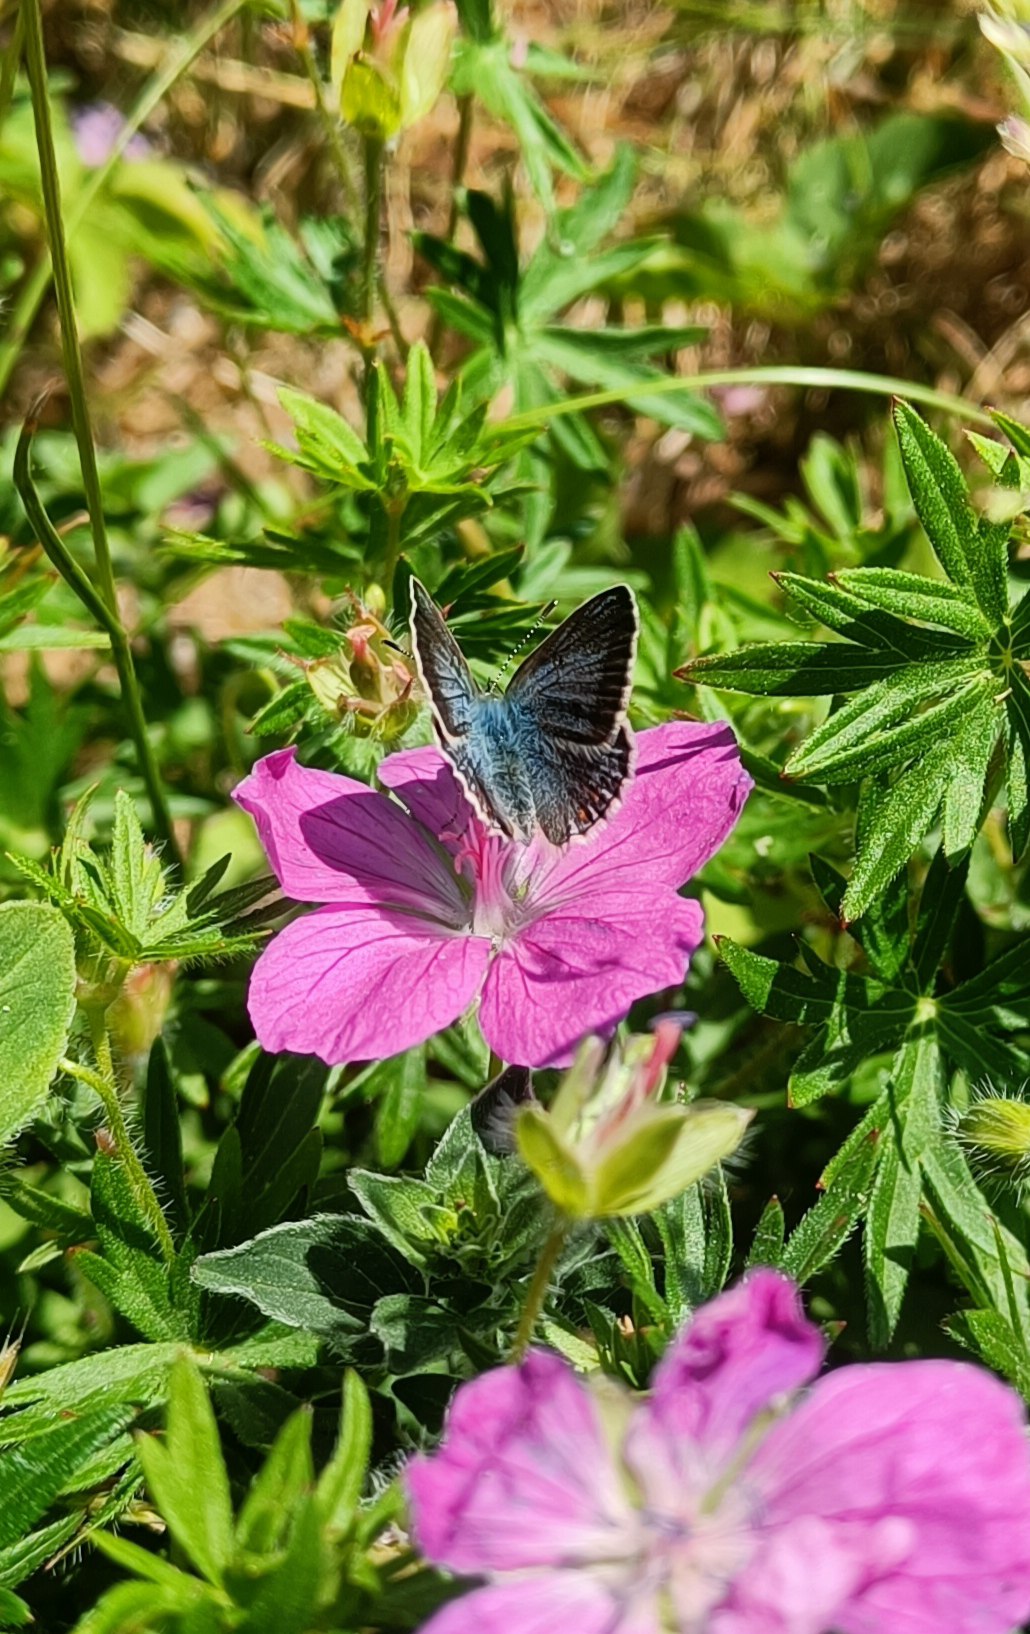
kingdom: Animalia
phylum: Arthropoda
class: Insecta
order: Lepidoptera
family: Lycaenidae
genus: Polyommatus
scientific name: Polyommatus icarus
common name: Almindelig blåfugl
